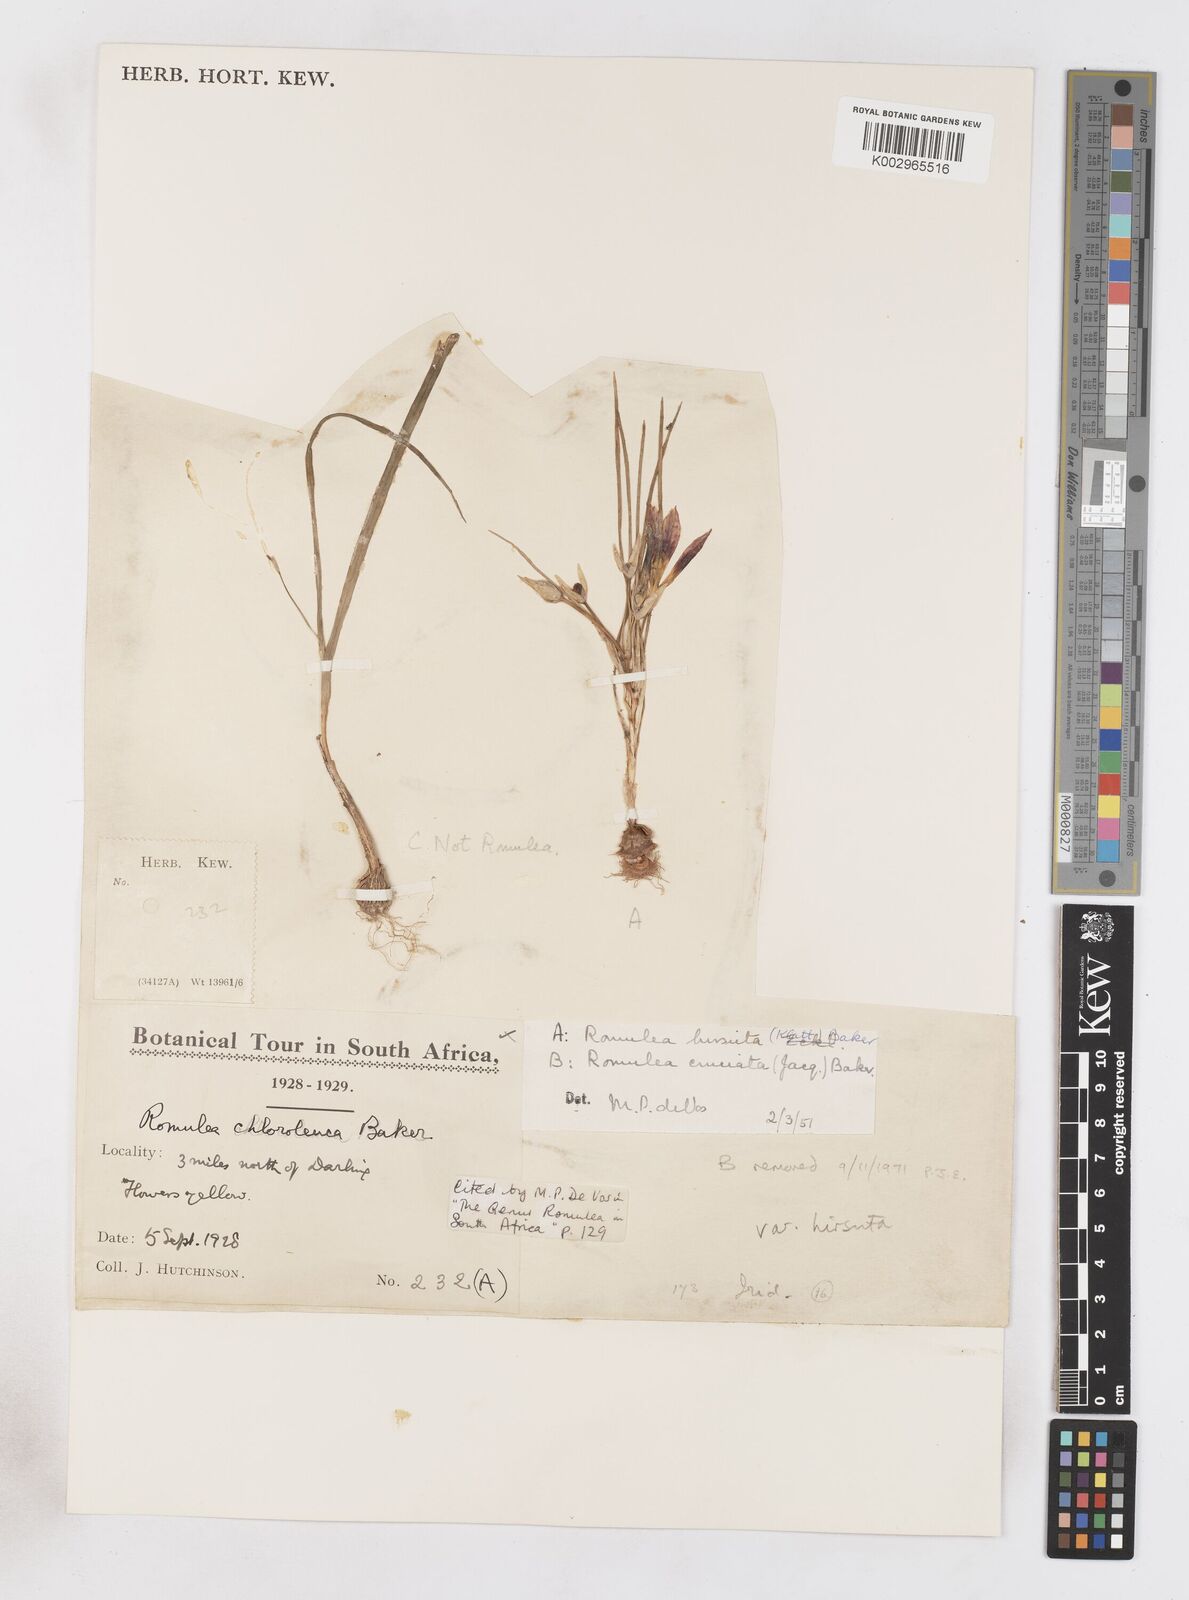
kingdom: Plantae
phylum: Tracheophyta
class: Liliopsida
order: Asparagales
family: Iridaceae
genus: Romulea
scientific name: Romulea hirsuta
